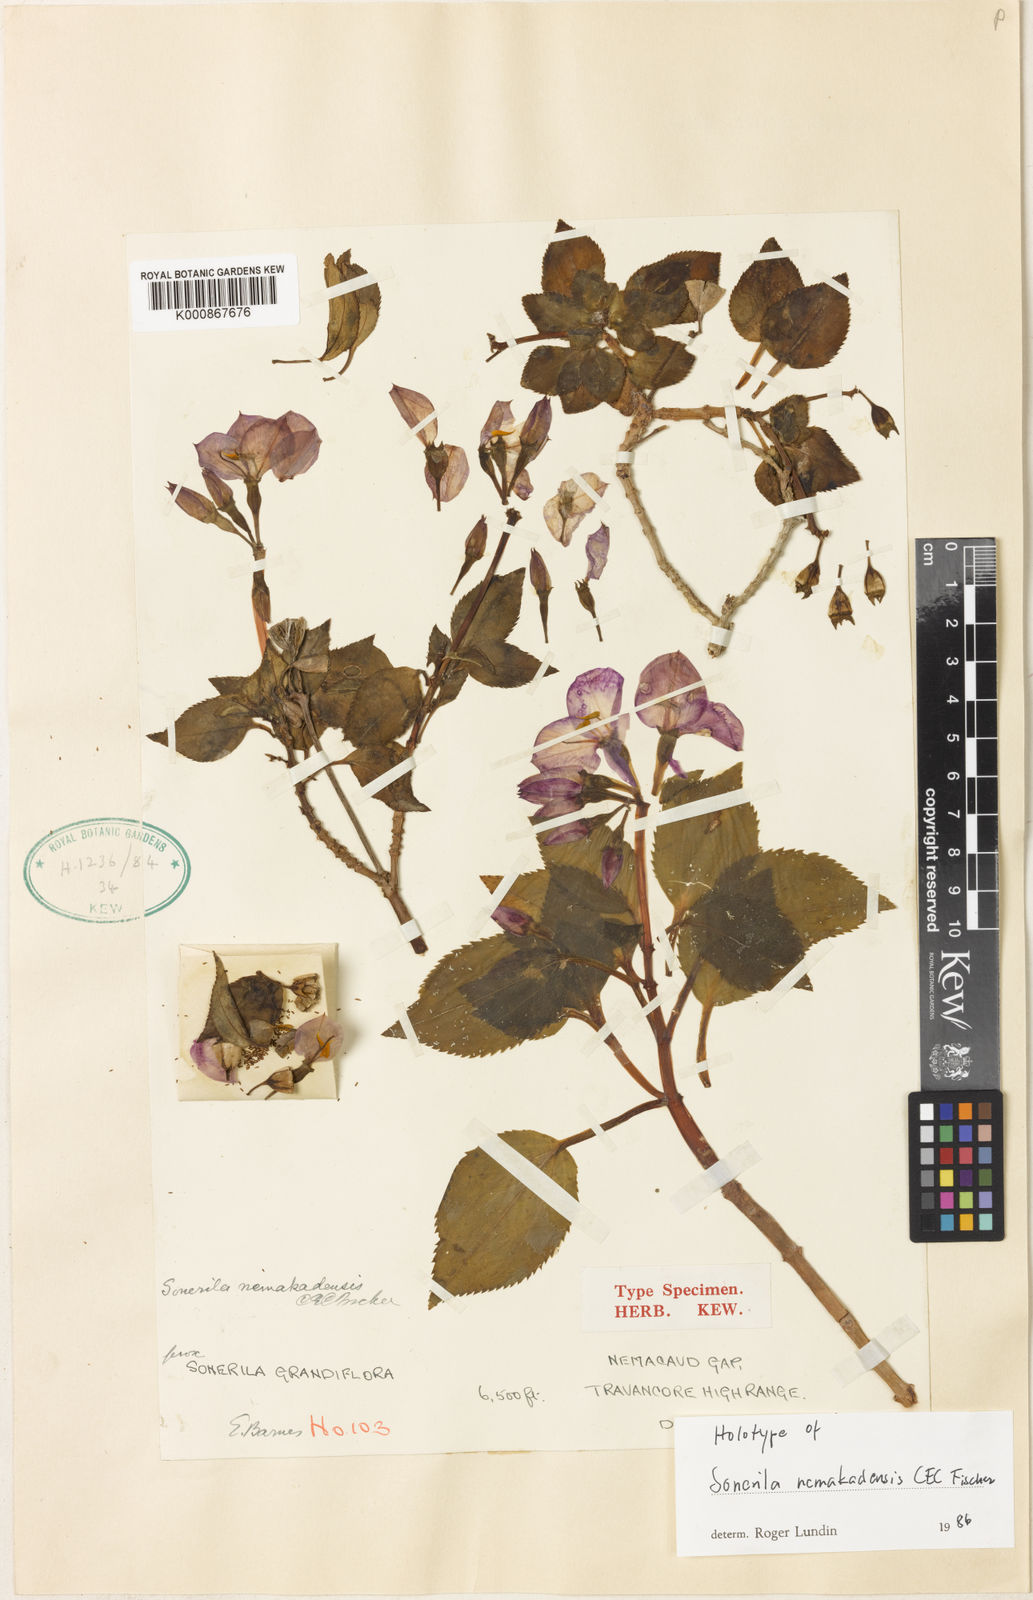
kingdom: Plantae
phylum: Tracheophyta
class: Magnoliopsida
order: Myrtales
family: Melastomataceae
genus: Sonerila
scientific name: Sonerila nemakadensis
